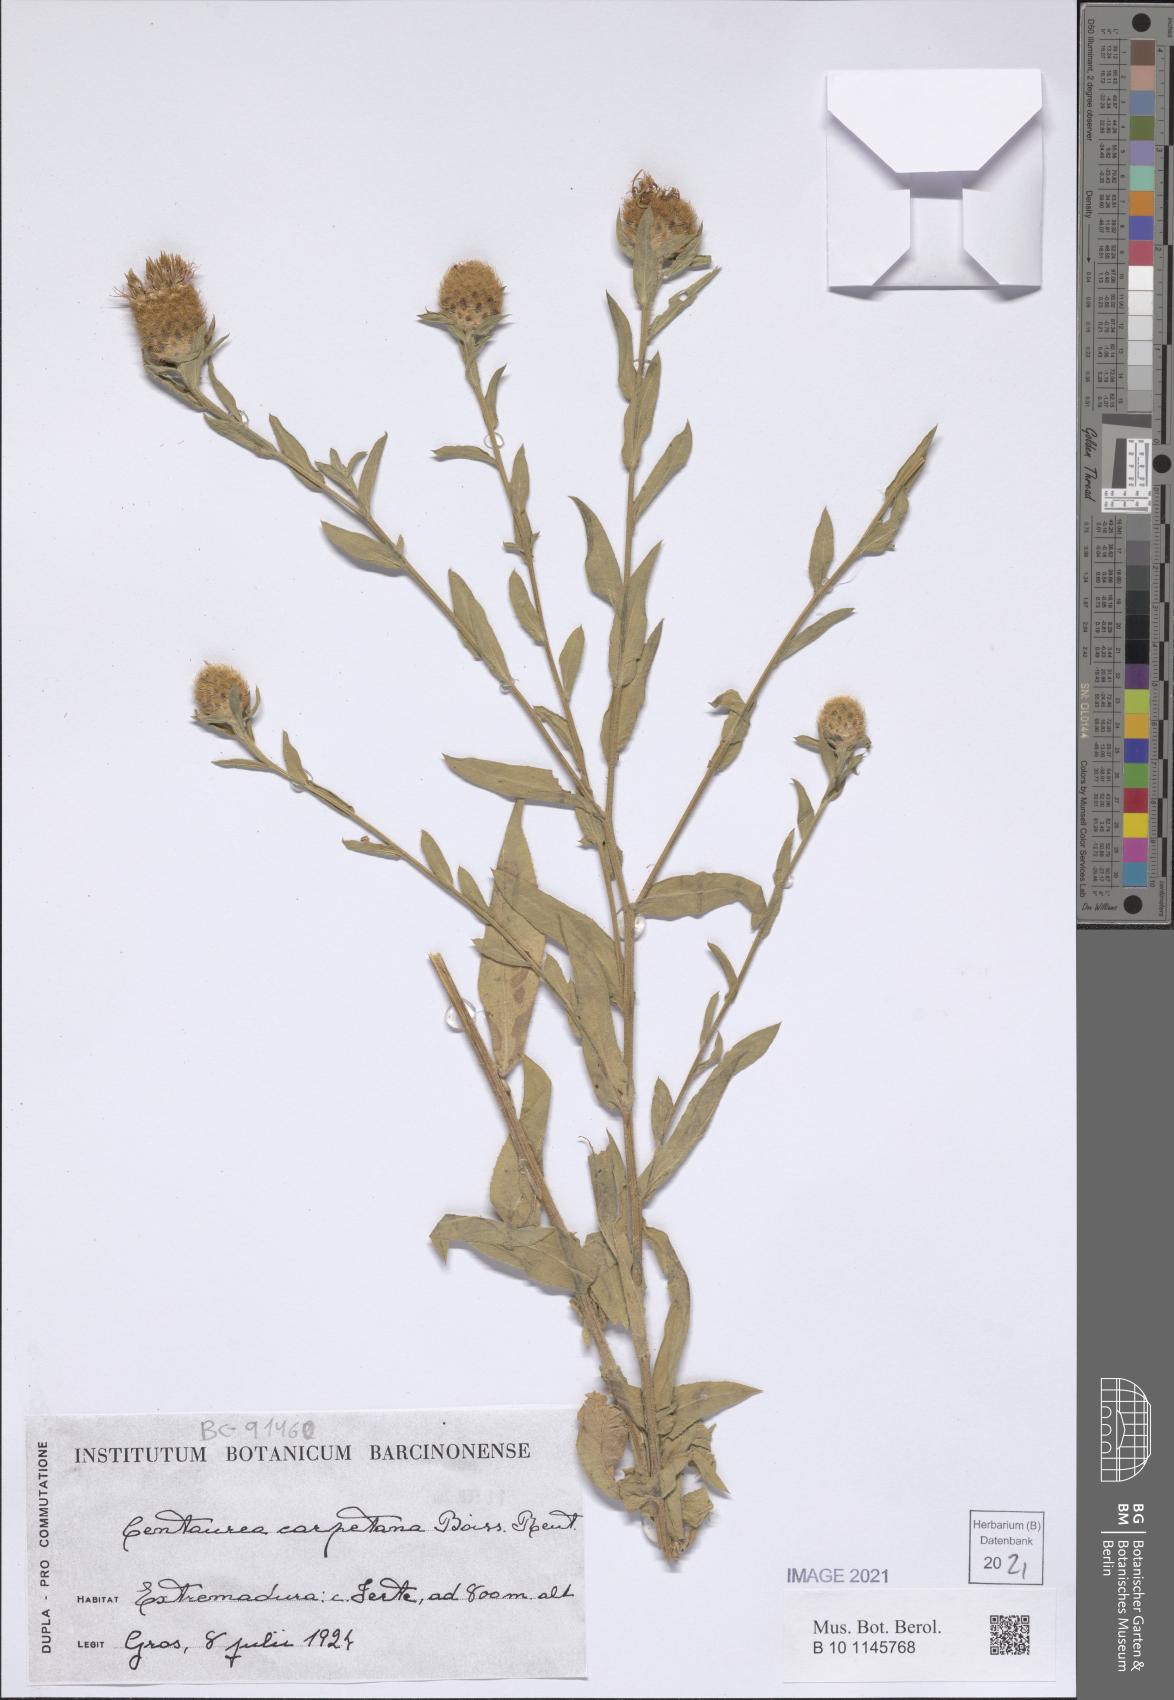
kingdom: Plantae
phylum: Tracheophyta
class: Magnoliopsida
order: Asterales
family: Asteraceae
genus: Centaurea
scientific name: Centaurea nigra
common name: Lesser knapweed
